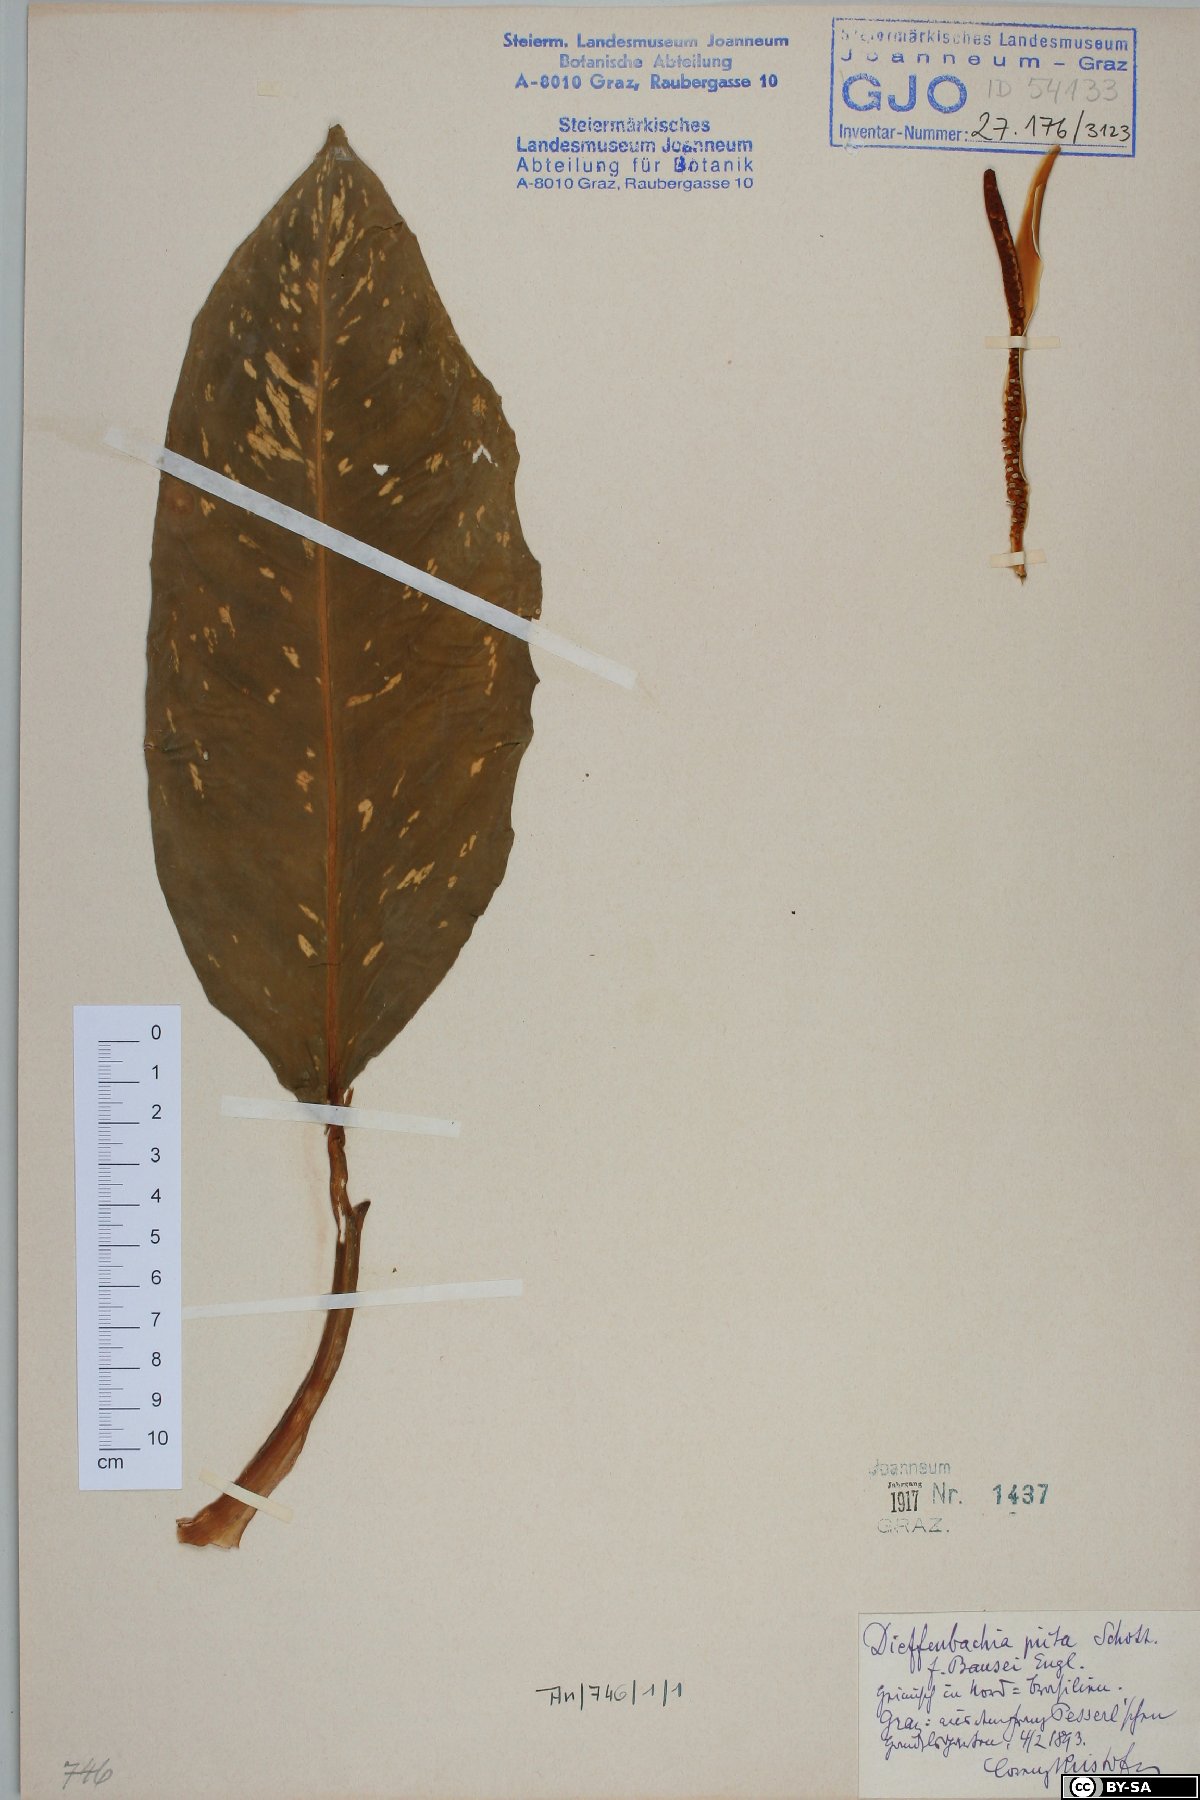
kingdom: Plantae
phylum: Tracheophyta
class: Liliopsida
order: Alismatales
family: Araceae
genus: Dieffenbachia
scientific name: Dieffenbachia bausei
